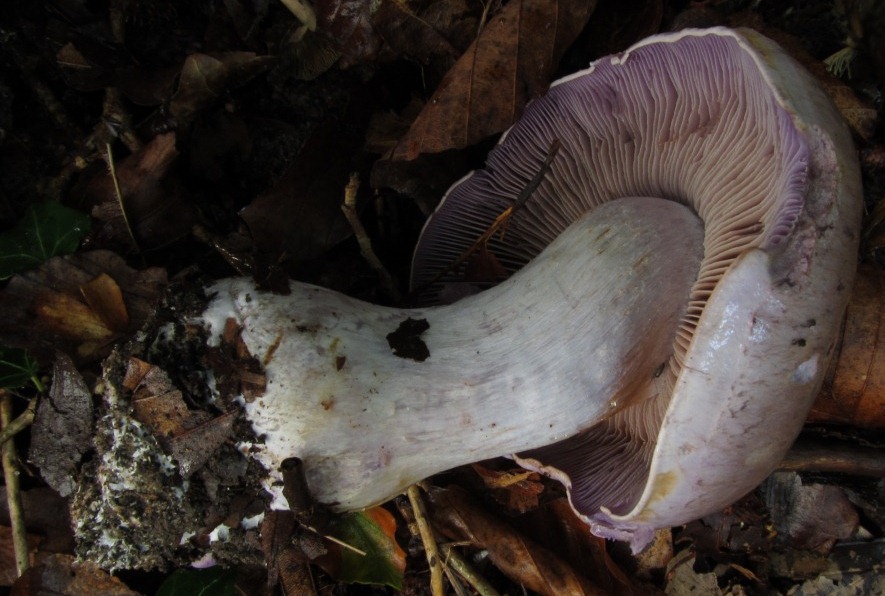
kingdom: Fungi
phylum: Basidiomycota
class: Agaricomycetes
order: Agaricales
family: Cortinariaceae
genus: Cortinarius
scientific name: Cortinarius largus
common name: violetrandet slørhat
